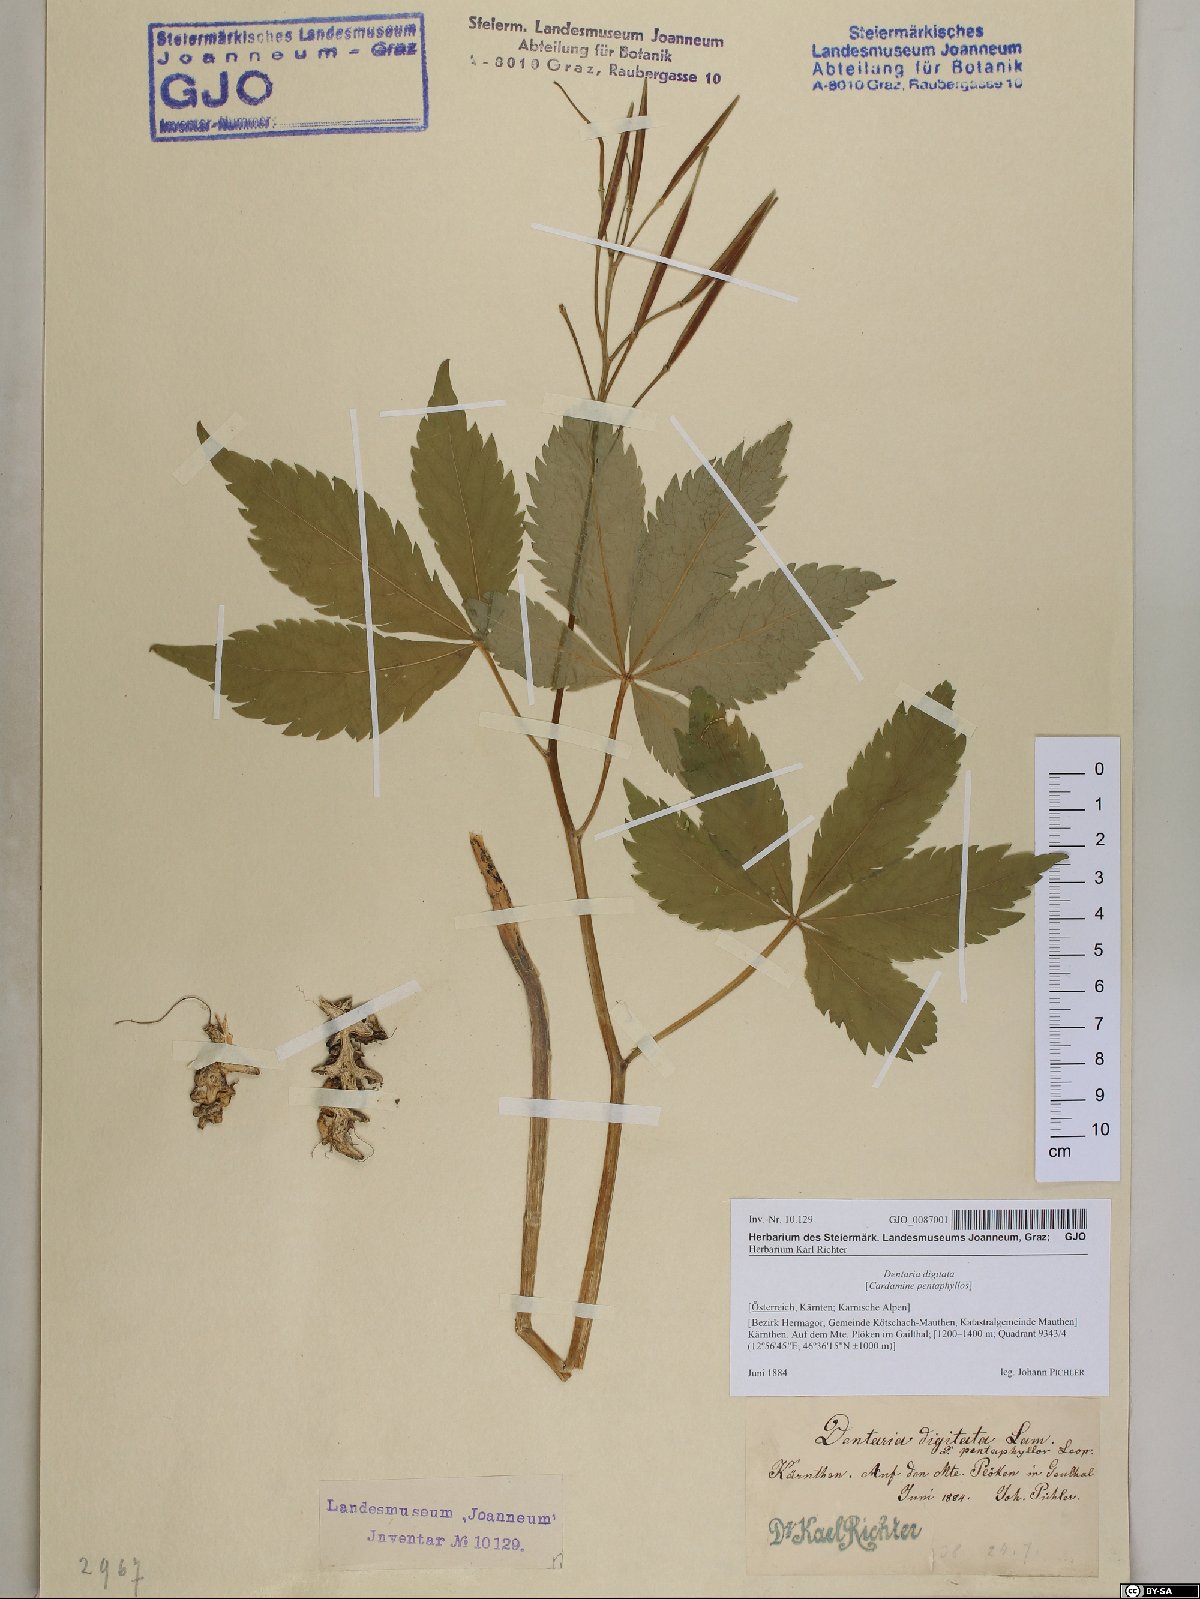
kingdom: Plantae
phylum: Tracheophyta
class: Magnoliopsida
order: Brassicales
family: Brassicaceae
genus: Cardamine
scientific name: Cardamine pentaphyllos
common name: Five-leaflet bitter-cress
